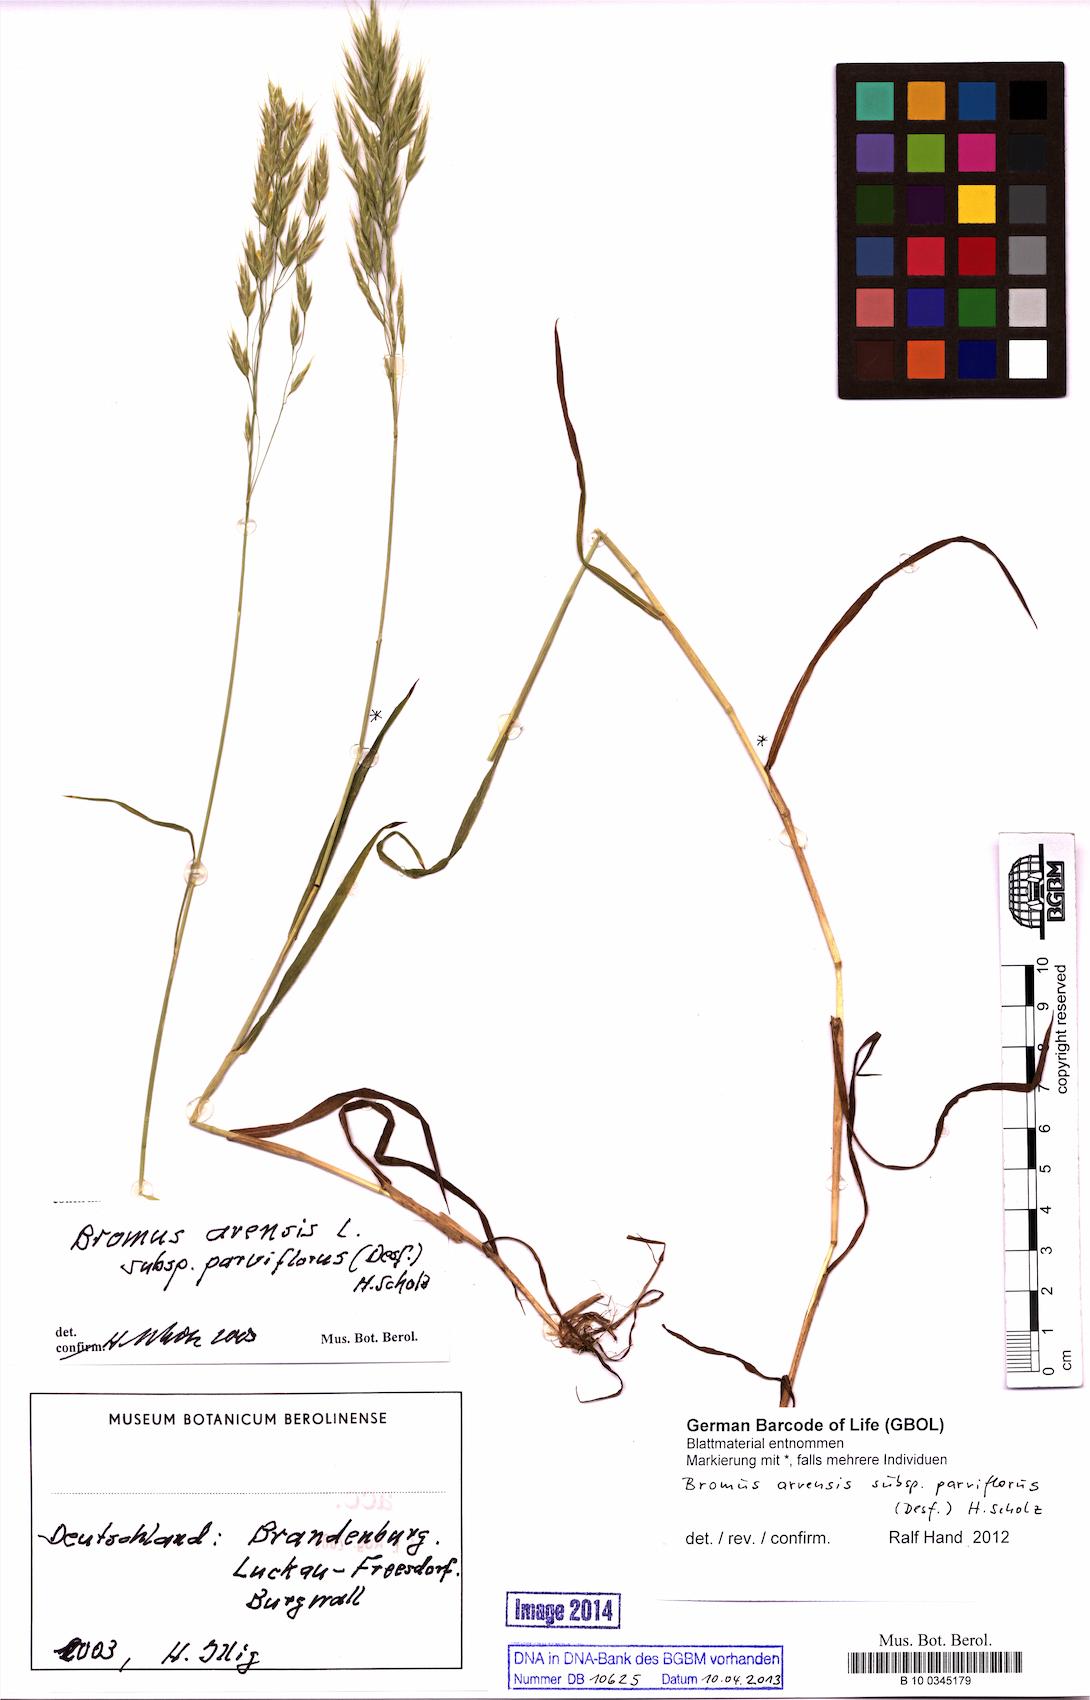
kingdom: Plantae
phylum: Tracheophyta
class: Liliopsida
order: Poales
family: Poaceae
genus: Bromus
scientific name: Bromus arvensis
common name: Field brome
